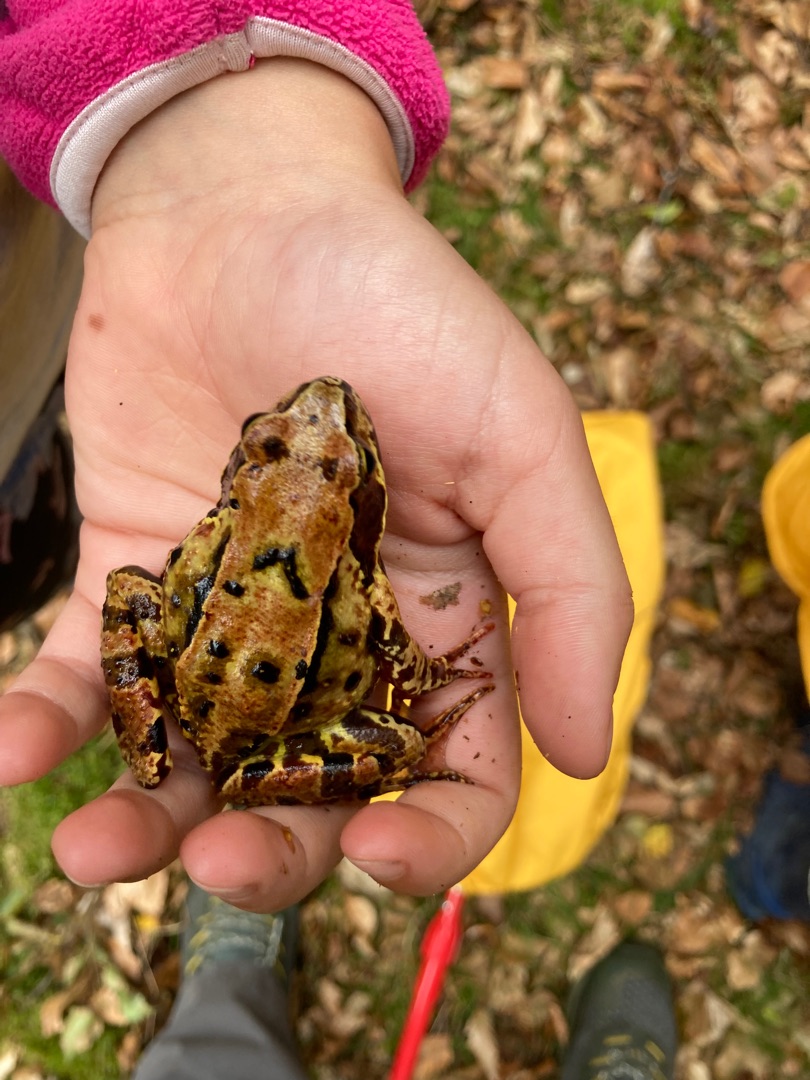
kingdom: Animalia
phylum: Chordata
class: Amphibia
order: Anura
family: Ranidae
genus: Rana
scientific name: Rana temporaria
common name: Butsnudet frø
